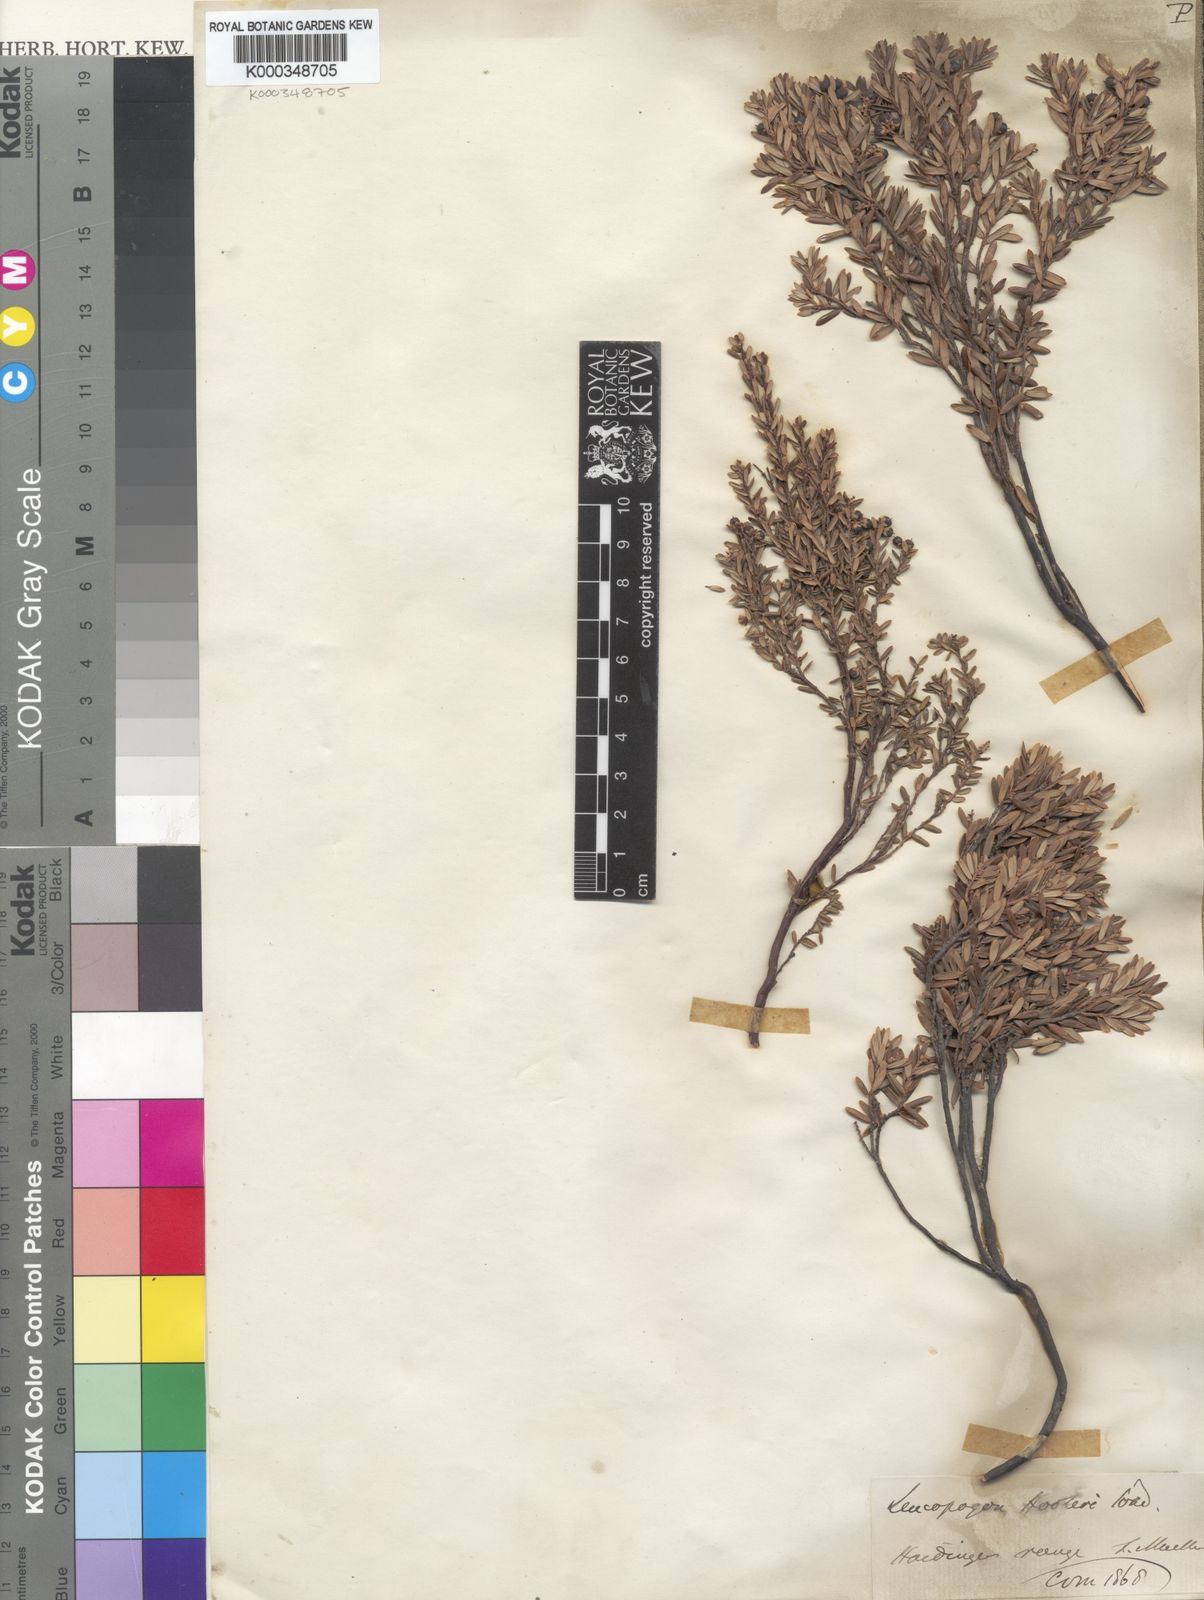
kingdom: Plantae
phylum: Tracheophyta
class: Magnoliopsida
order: Ericales
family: Ericaceae
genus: Acrothamnus
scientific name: Acrothamnus hookeri
